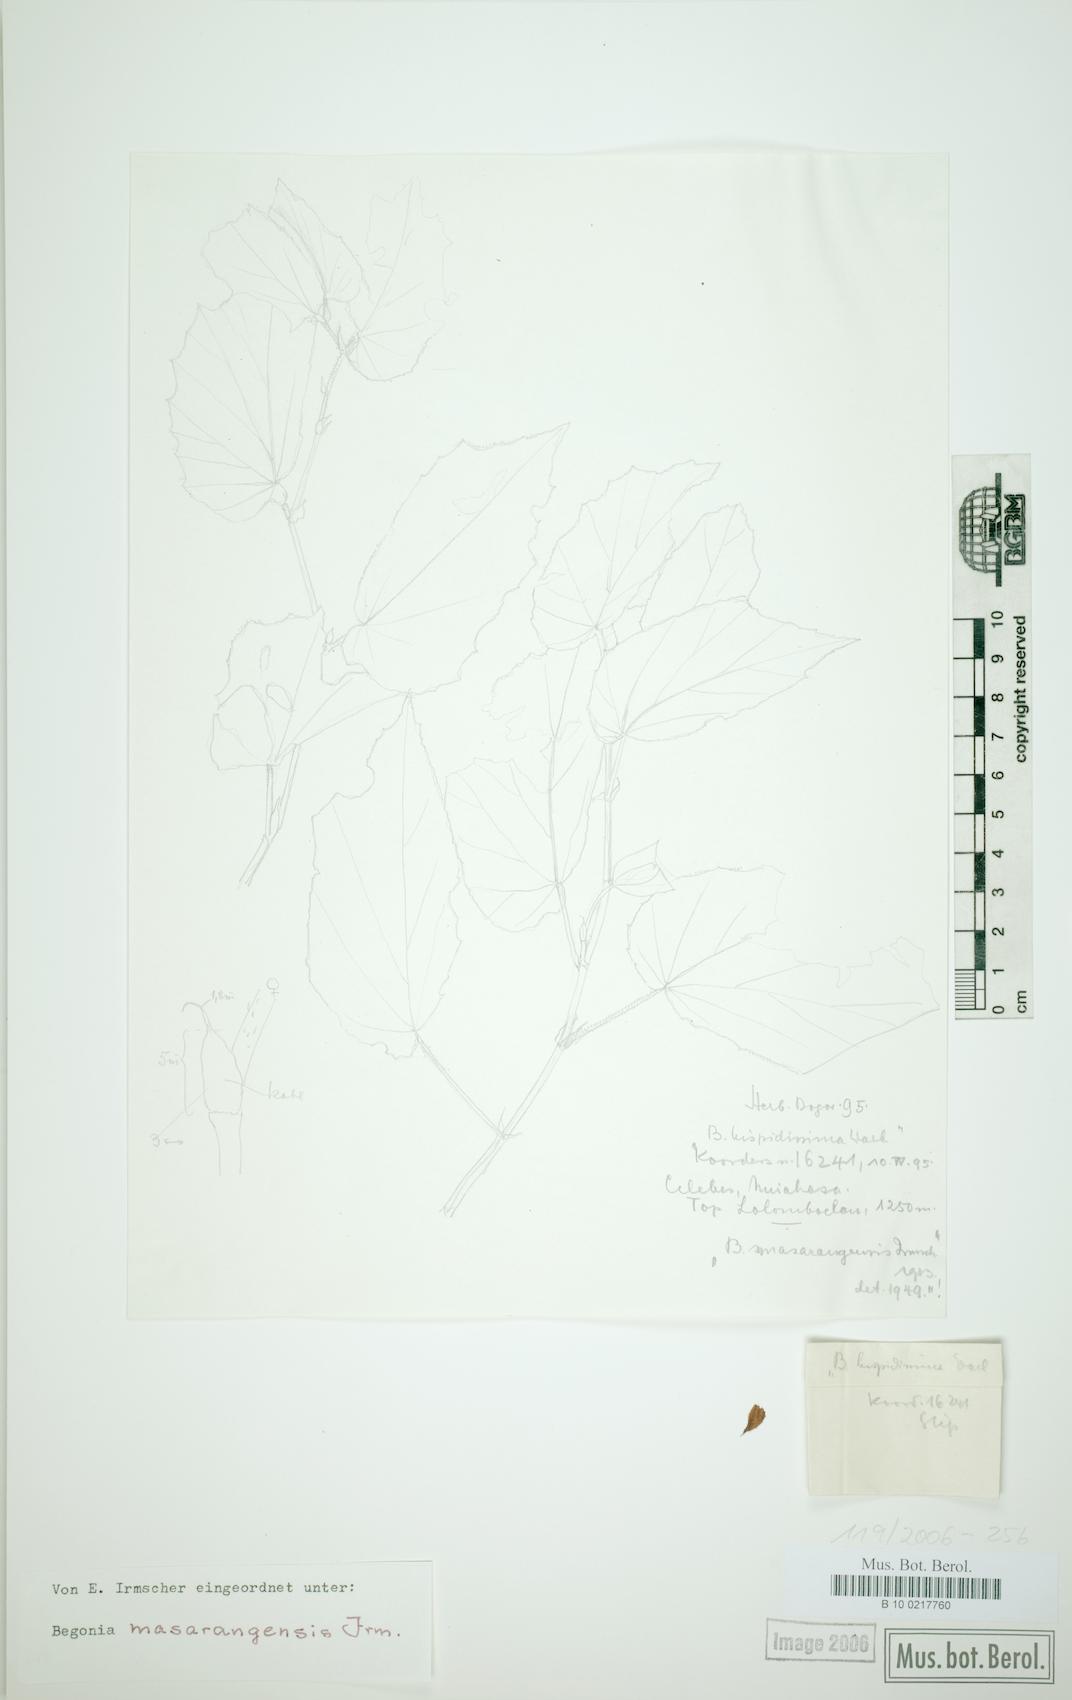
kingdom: Plantae
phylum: Tracheophyta
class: Magnoliopsida
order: Cucurbitales
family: Begoniaceae
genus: Begonia
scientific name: Begonia hispidissima
